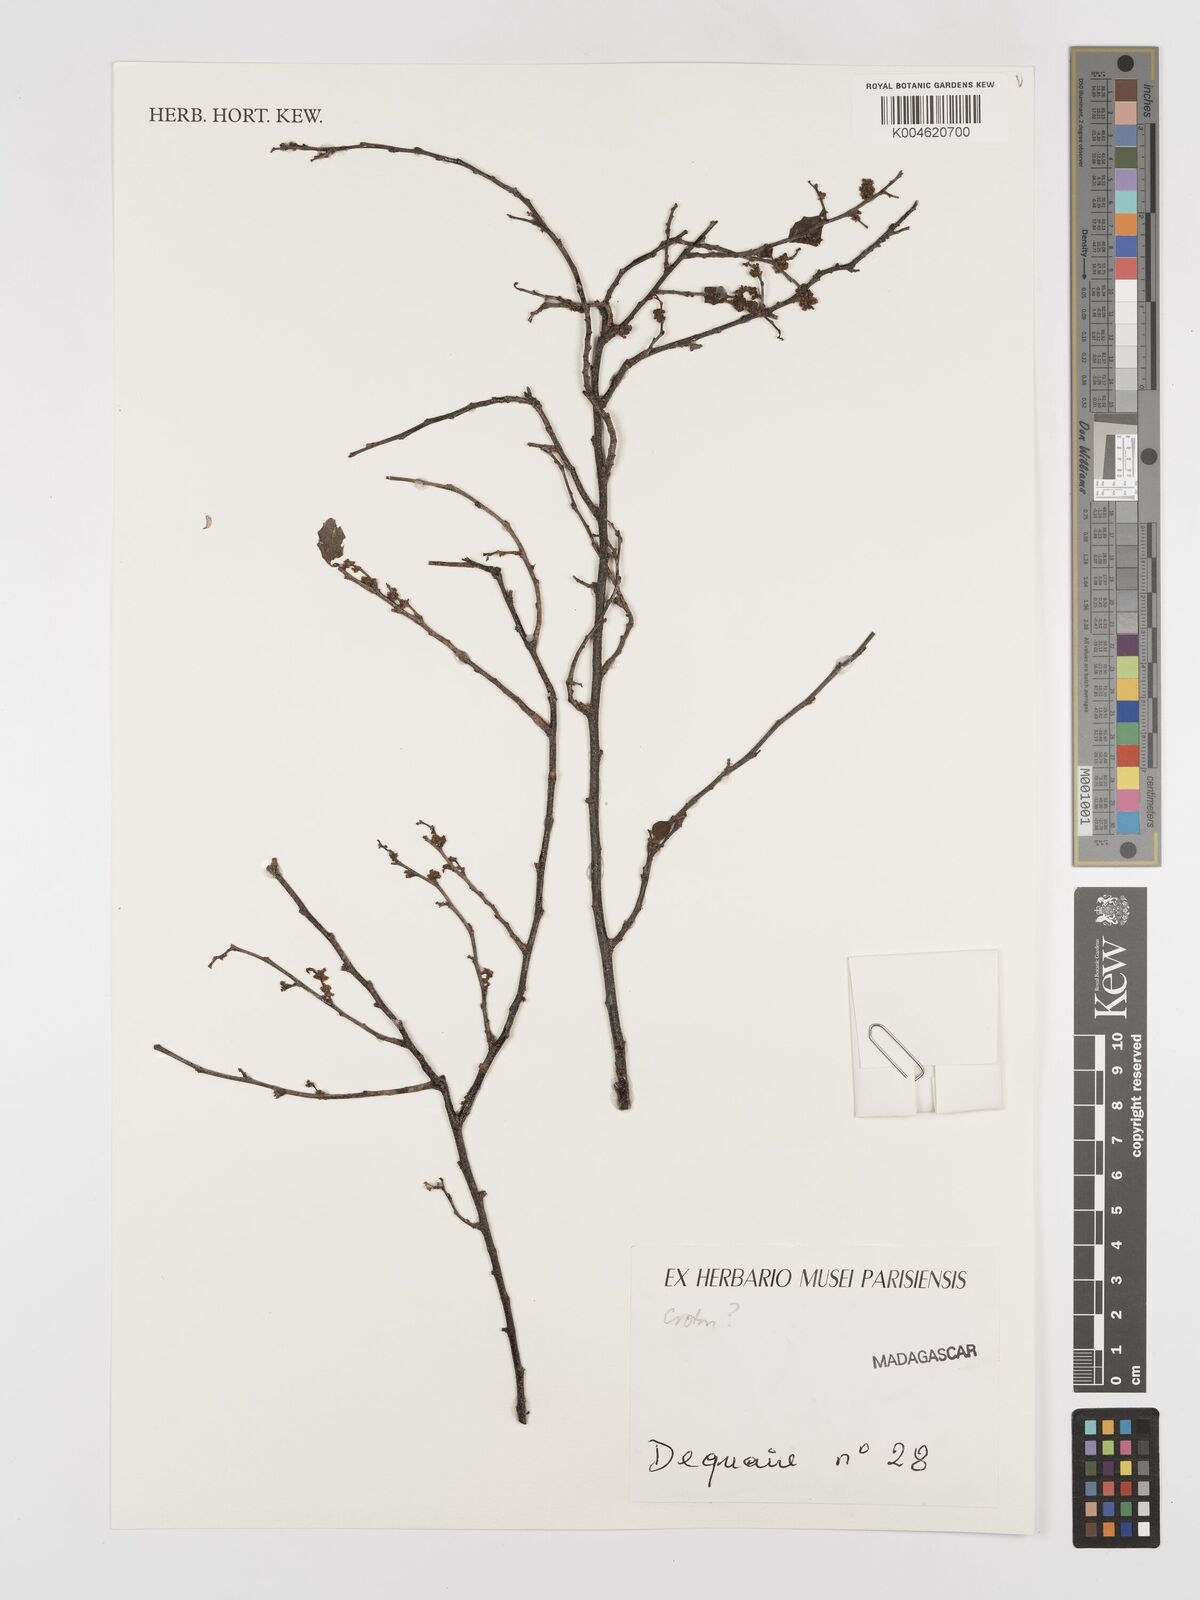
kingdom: Plantae
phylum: Tracheophyta
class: Magnoliopsida
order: Malpighiales
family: Euphorbiaceae
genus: Croton
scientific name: Croton
